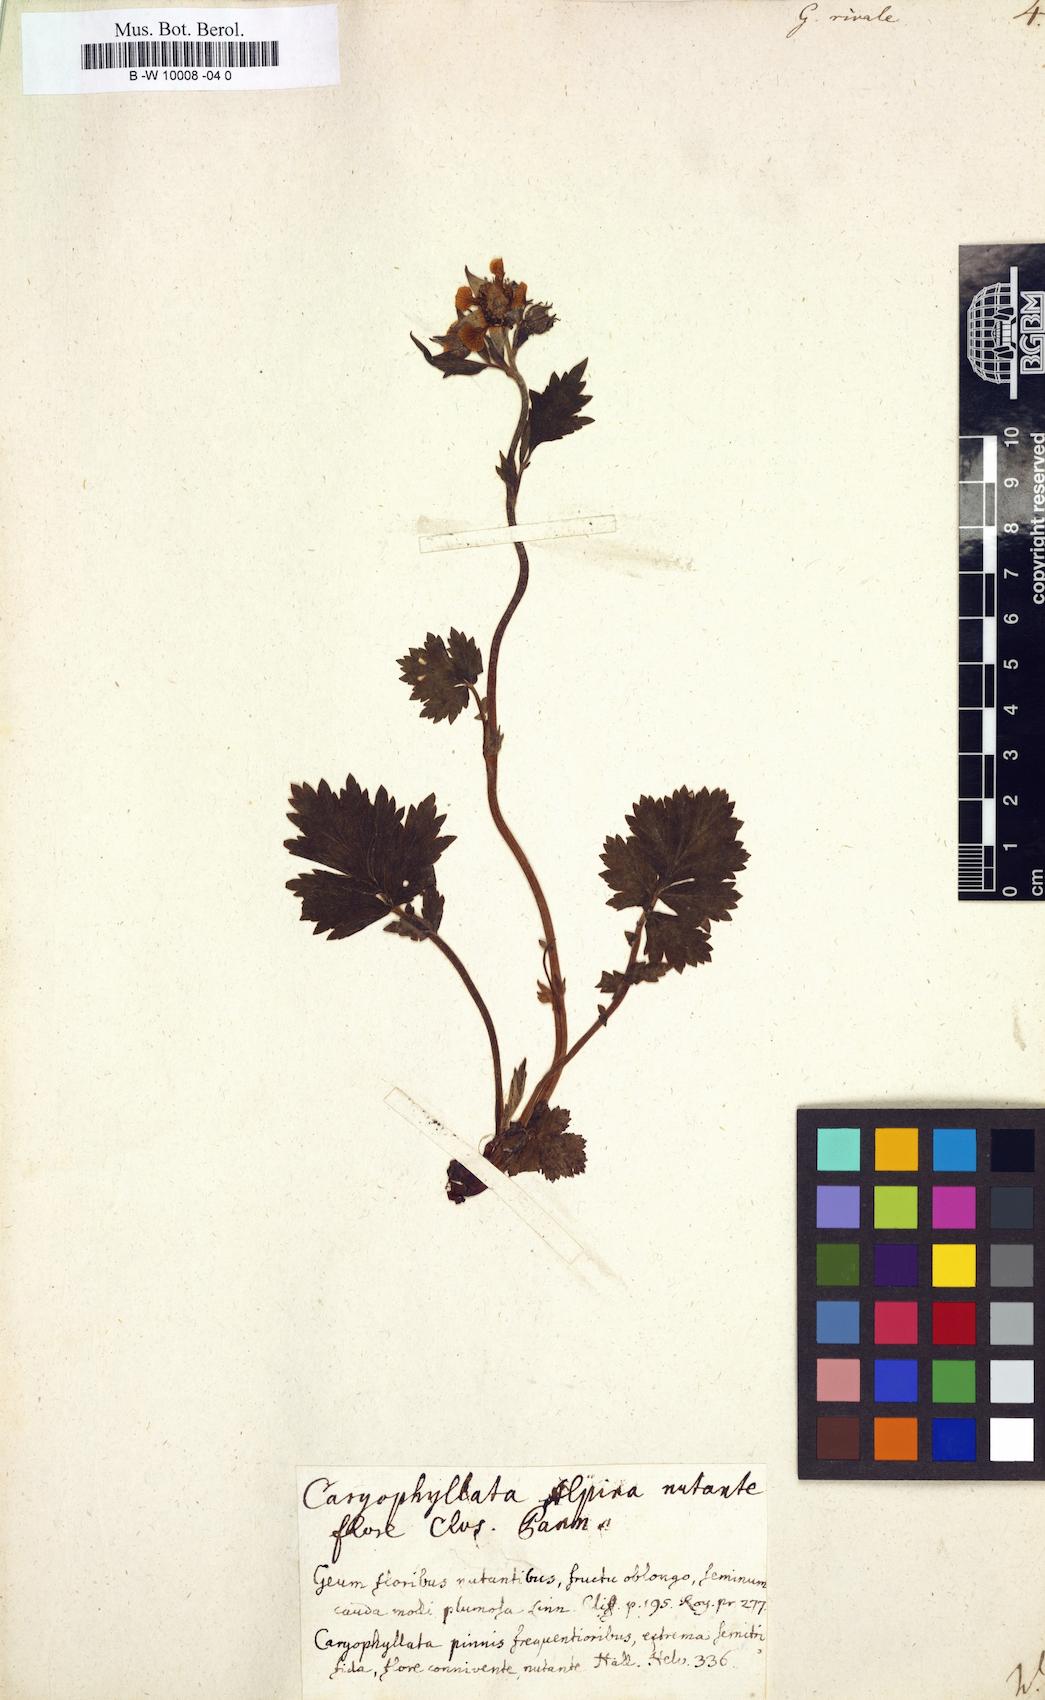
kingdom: Plantae
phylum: Tracheophyta
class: Magnoliopsida
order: Rosales
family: Rosaceae
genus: Geum
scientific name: Geum rivale
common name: Water avens
